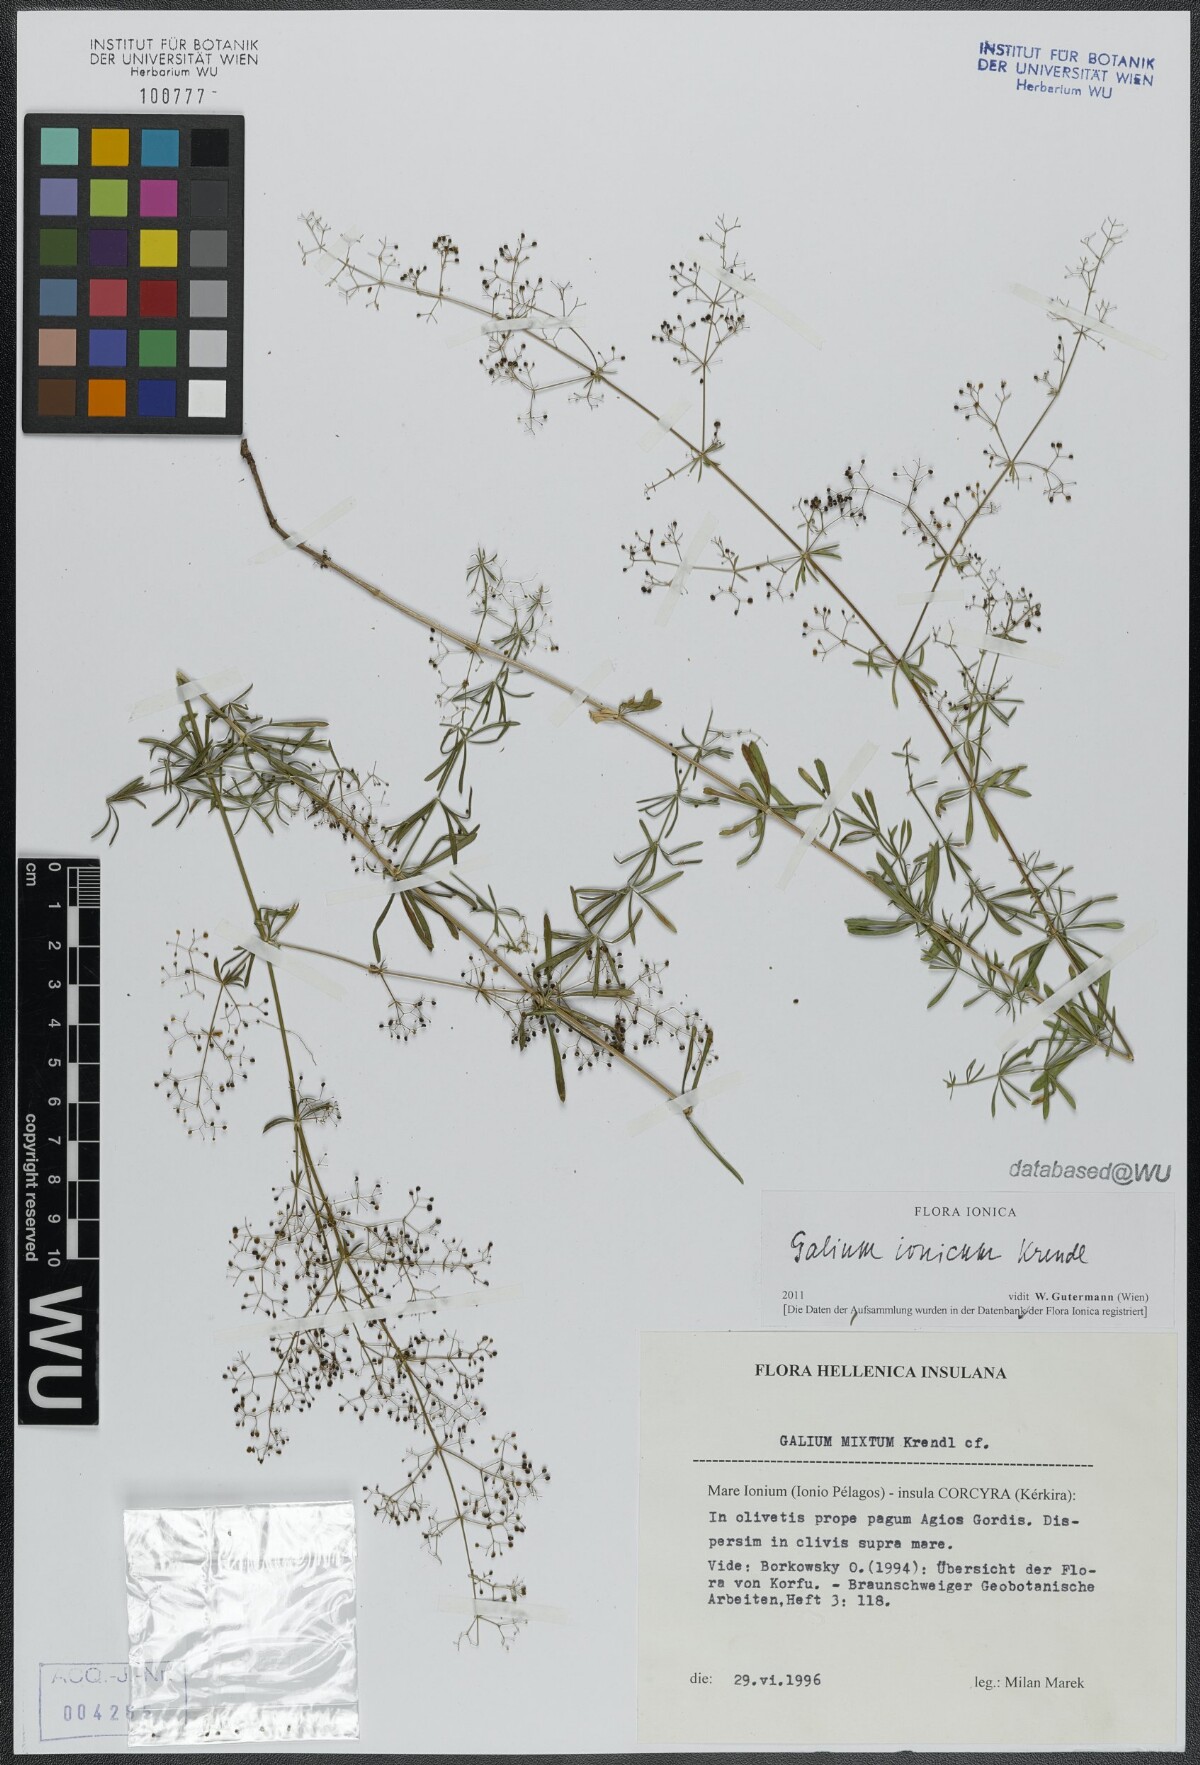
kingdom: Plantae
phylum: Tracheophyta
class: Magnoliopsida
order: Gentianales
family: Rubiaceae
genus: Galium
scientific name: Galium ionicum
